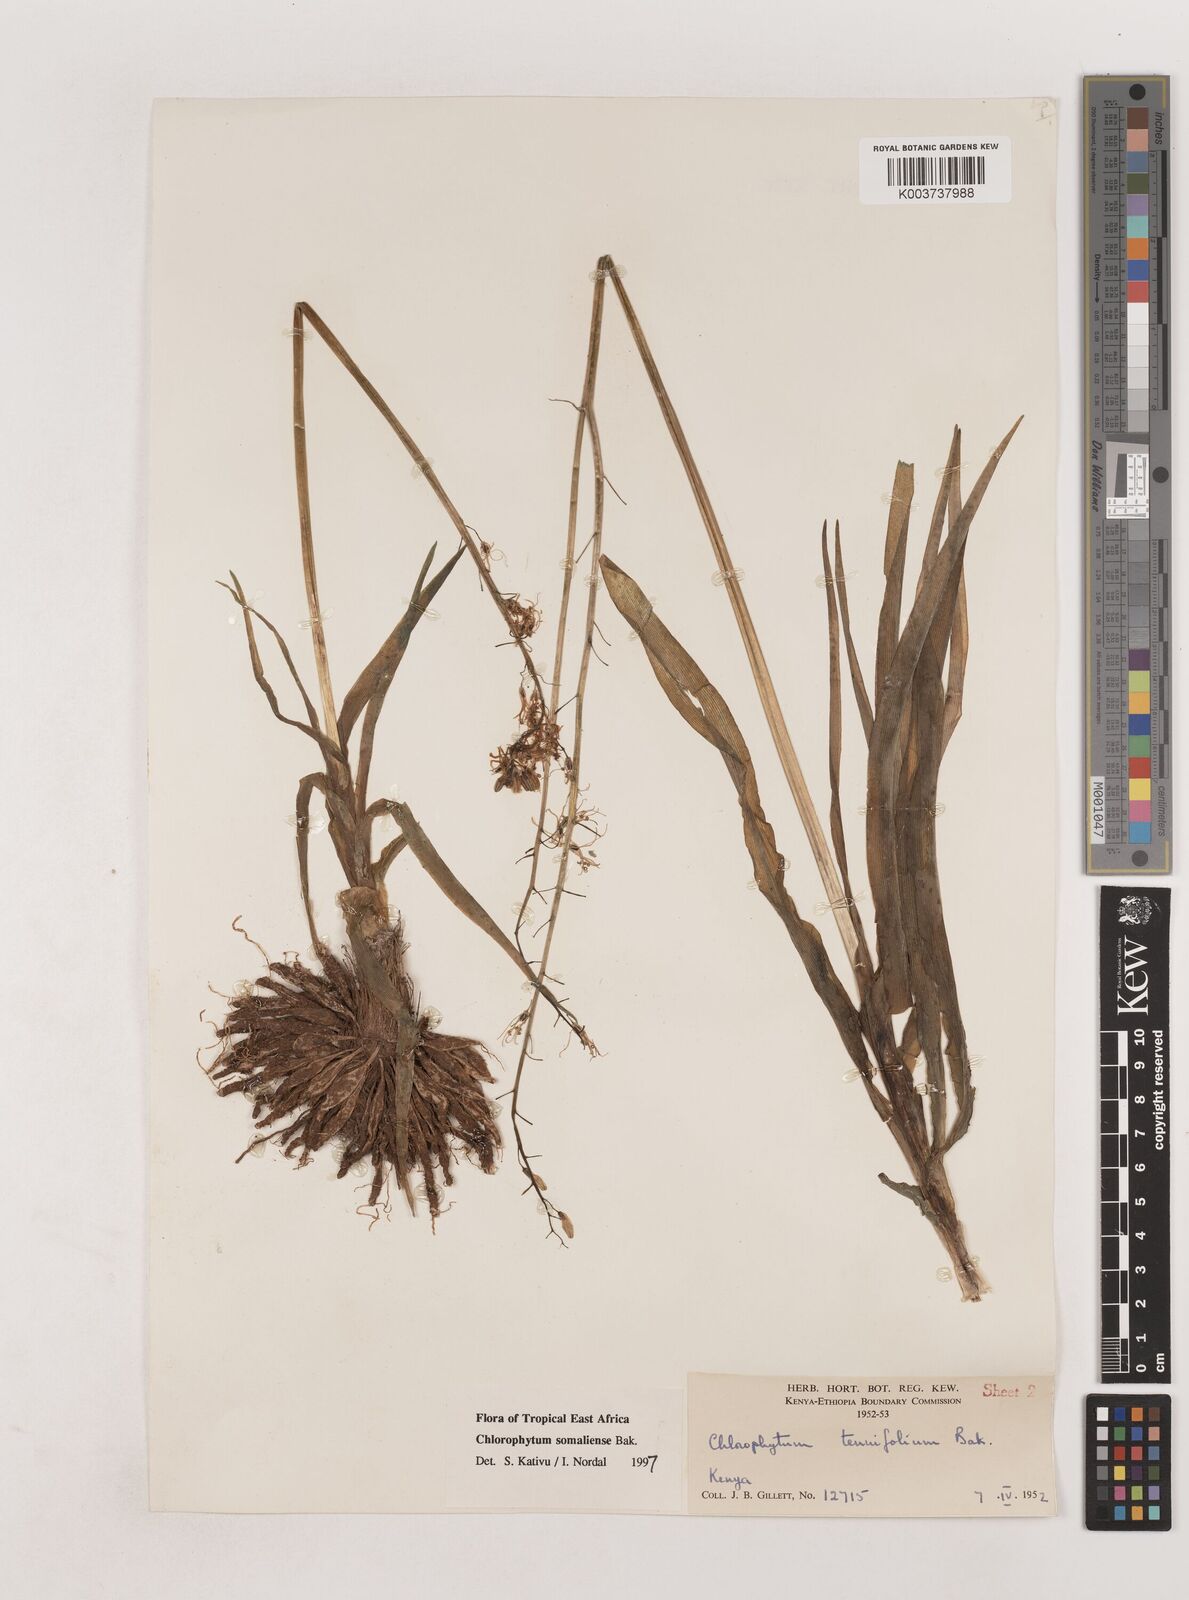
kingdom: Plantae
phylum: Tracheophyta
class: Liliopsida
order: Asparagales
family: Asparagaceae
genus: Chlorophytum
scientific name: Chlorophytum somaliense
